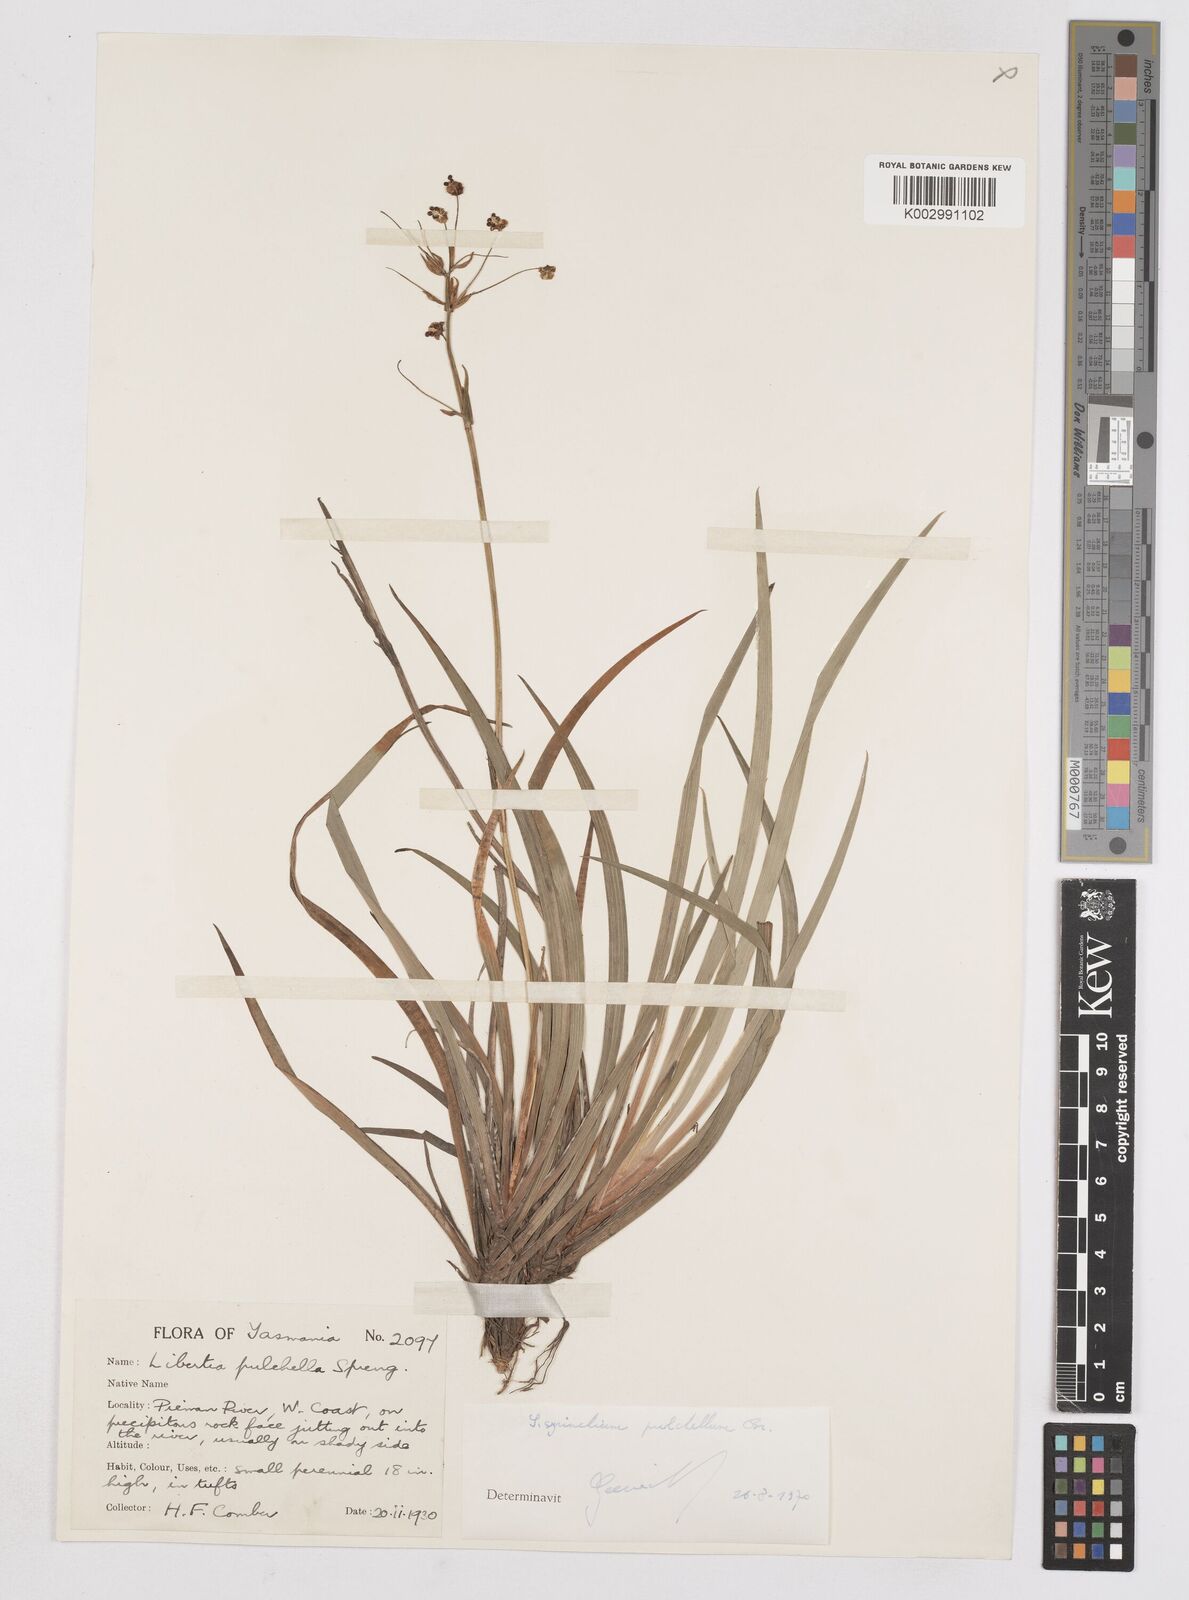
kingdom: Plantae
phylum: Tracheophyta
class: Liliopsida
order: Asparagales
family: Iridaceae
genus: Libertia
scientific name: Libertia pulchella
